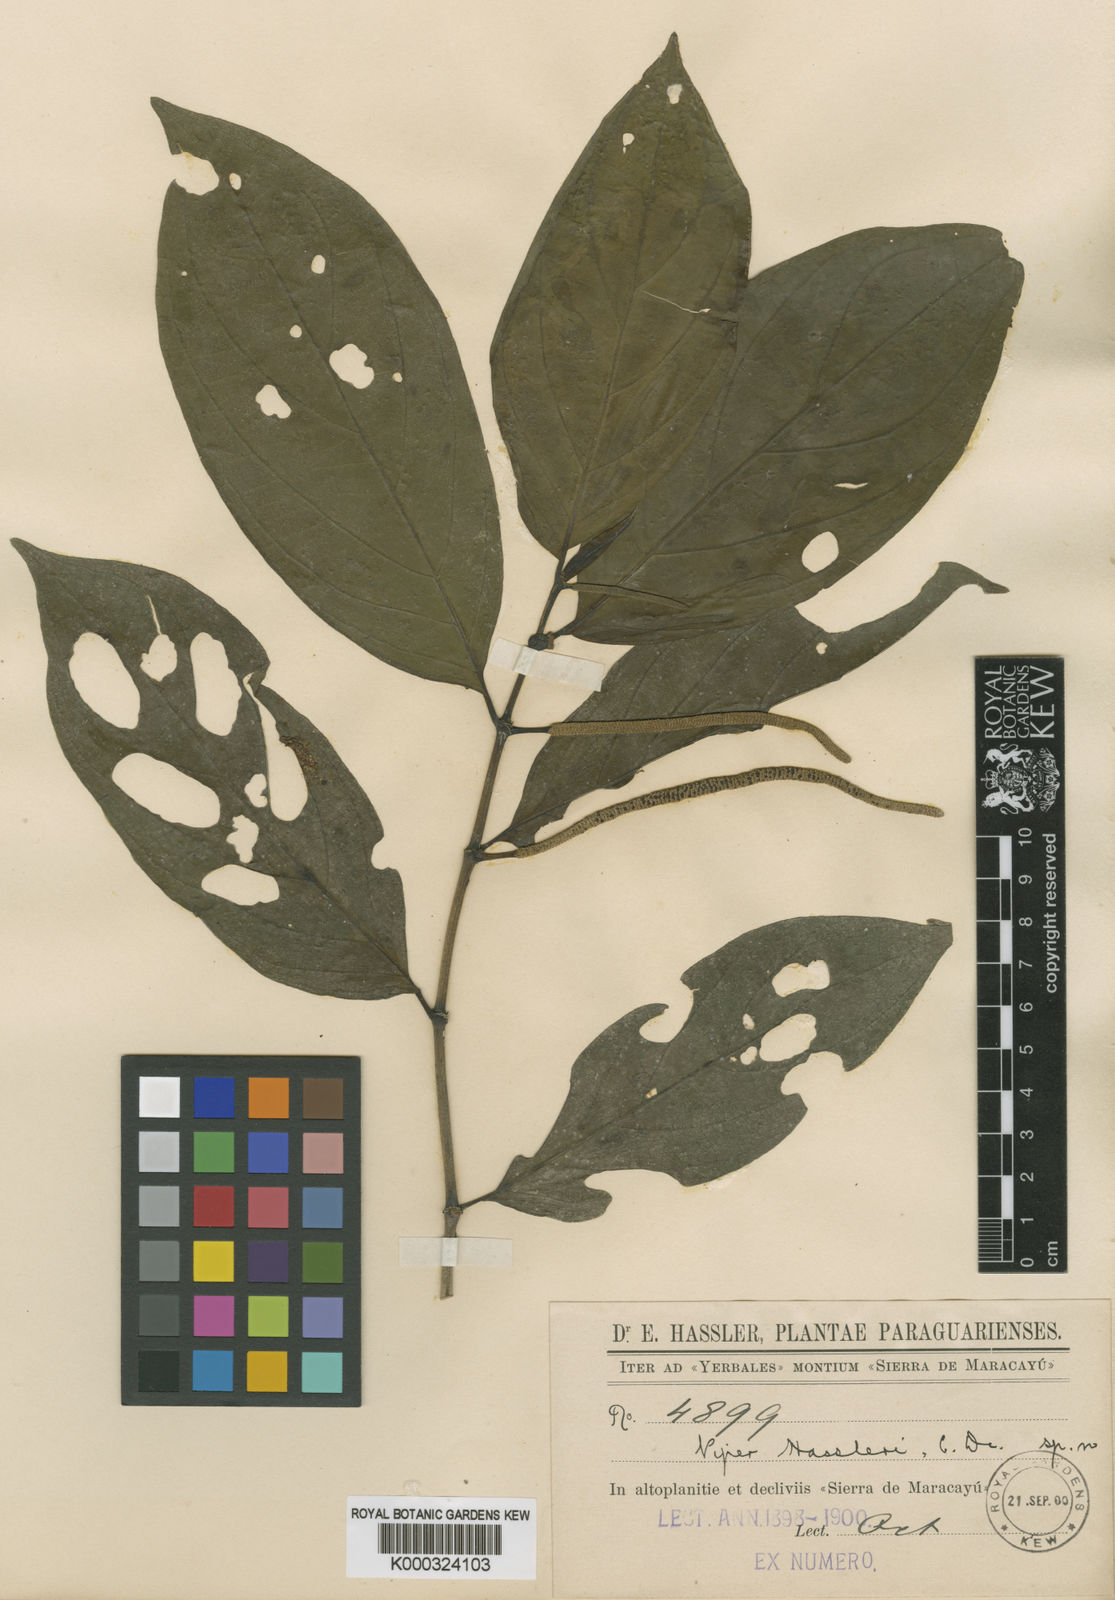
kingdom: Plantae
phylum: Tracheophyta
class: Magnoliopsida
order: Piperales
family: Piperaceae
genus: Piper
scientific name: Piper hassleri
